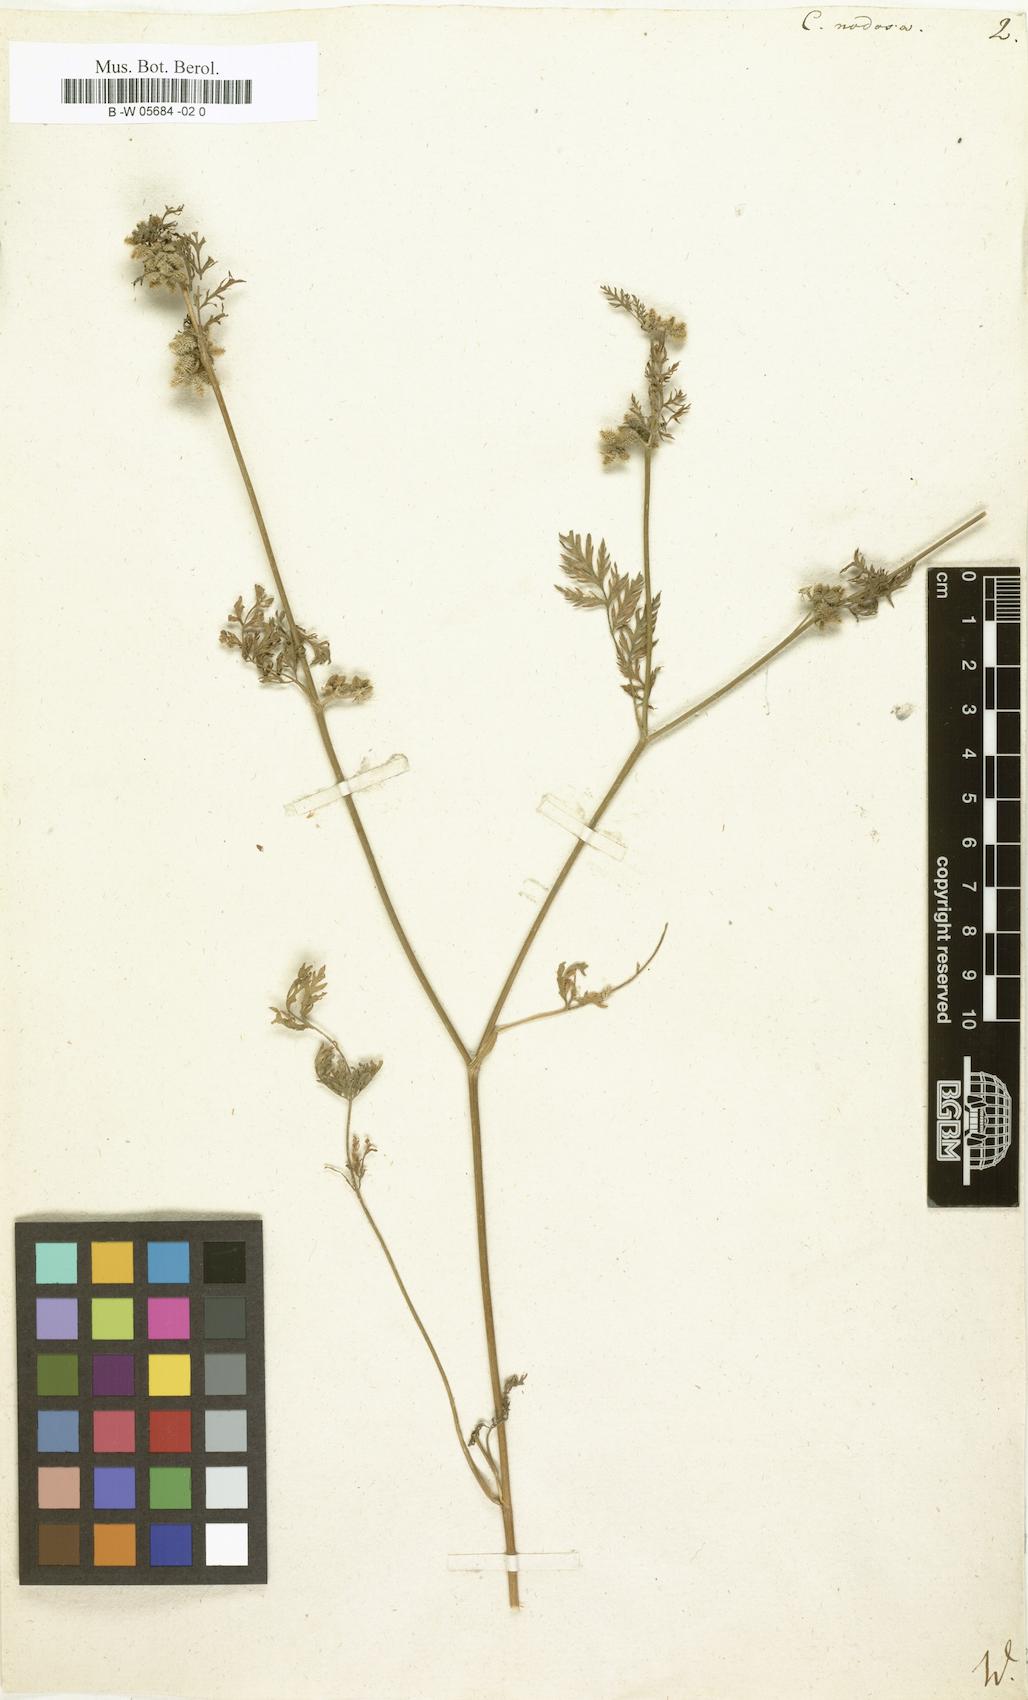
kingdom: Plantae
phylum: Tracheophyta
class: Magnoliopsida
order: Apiales
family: Apiaceae
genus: Torilis
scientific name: Torilis nodosa
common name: Knotted hedge-parsley
